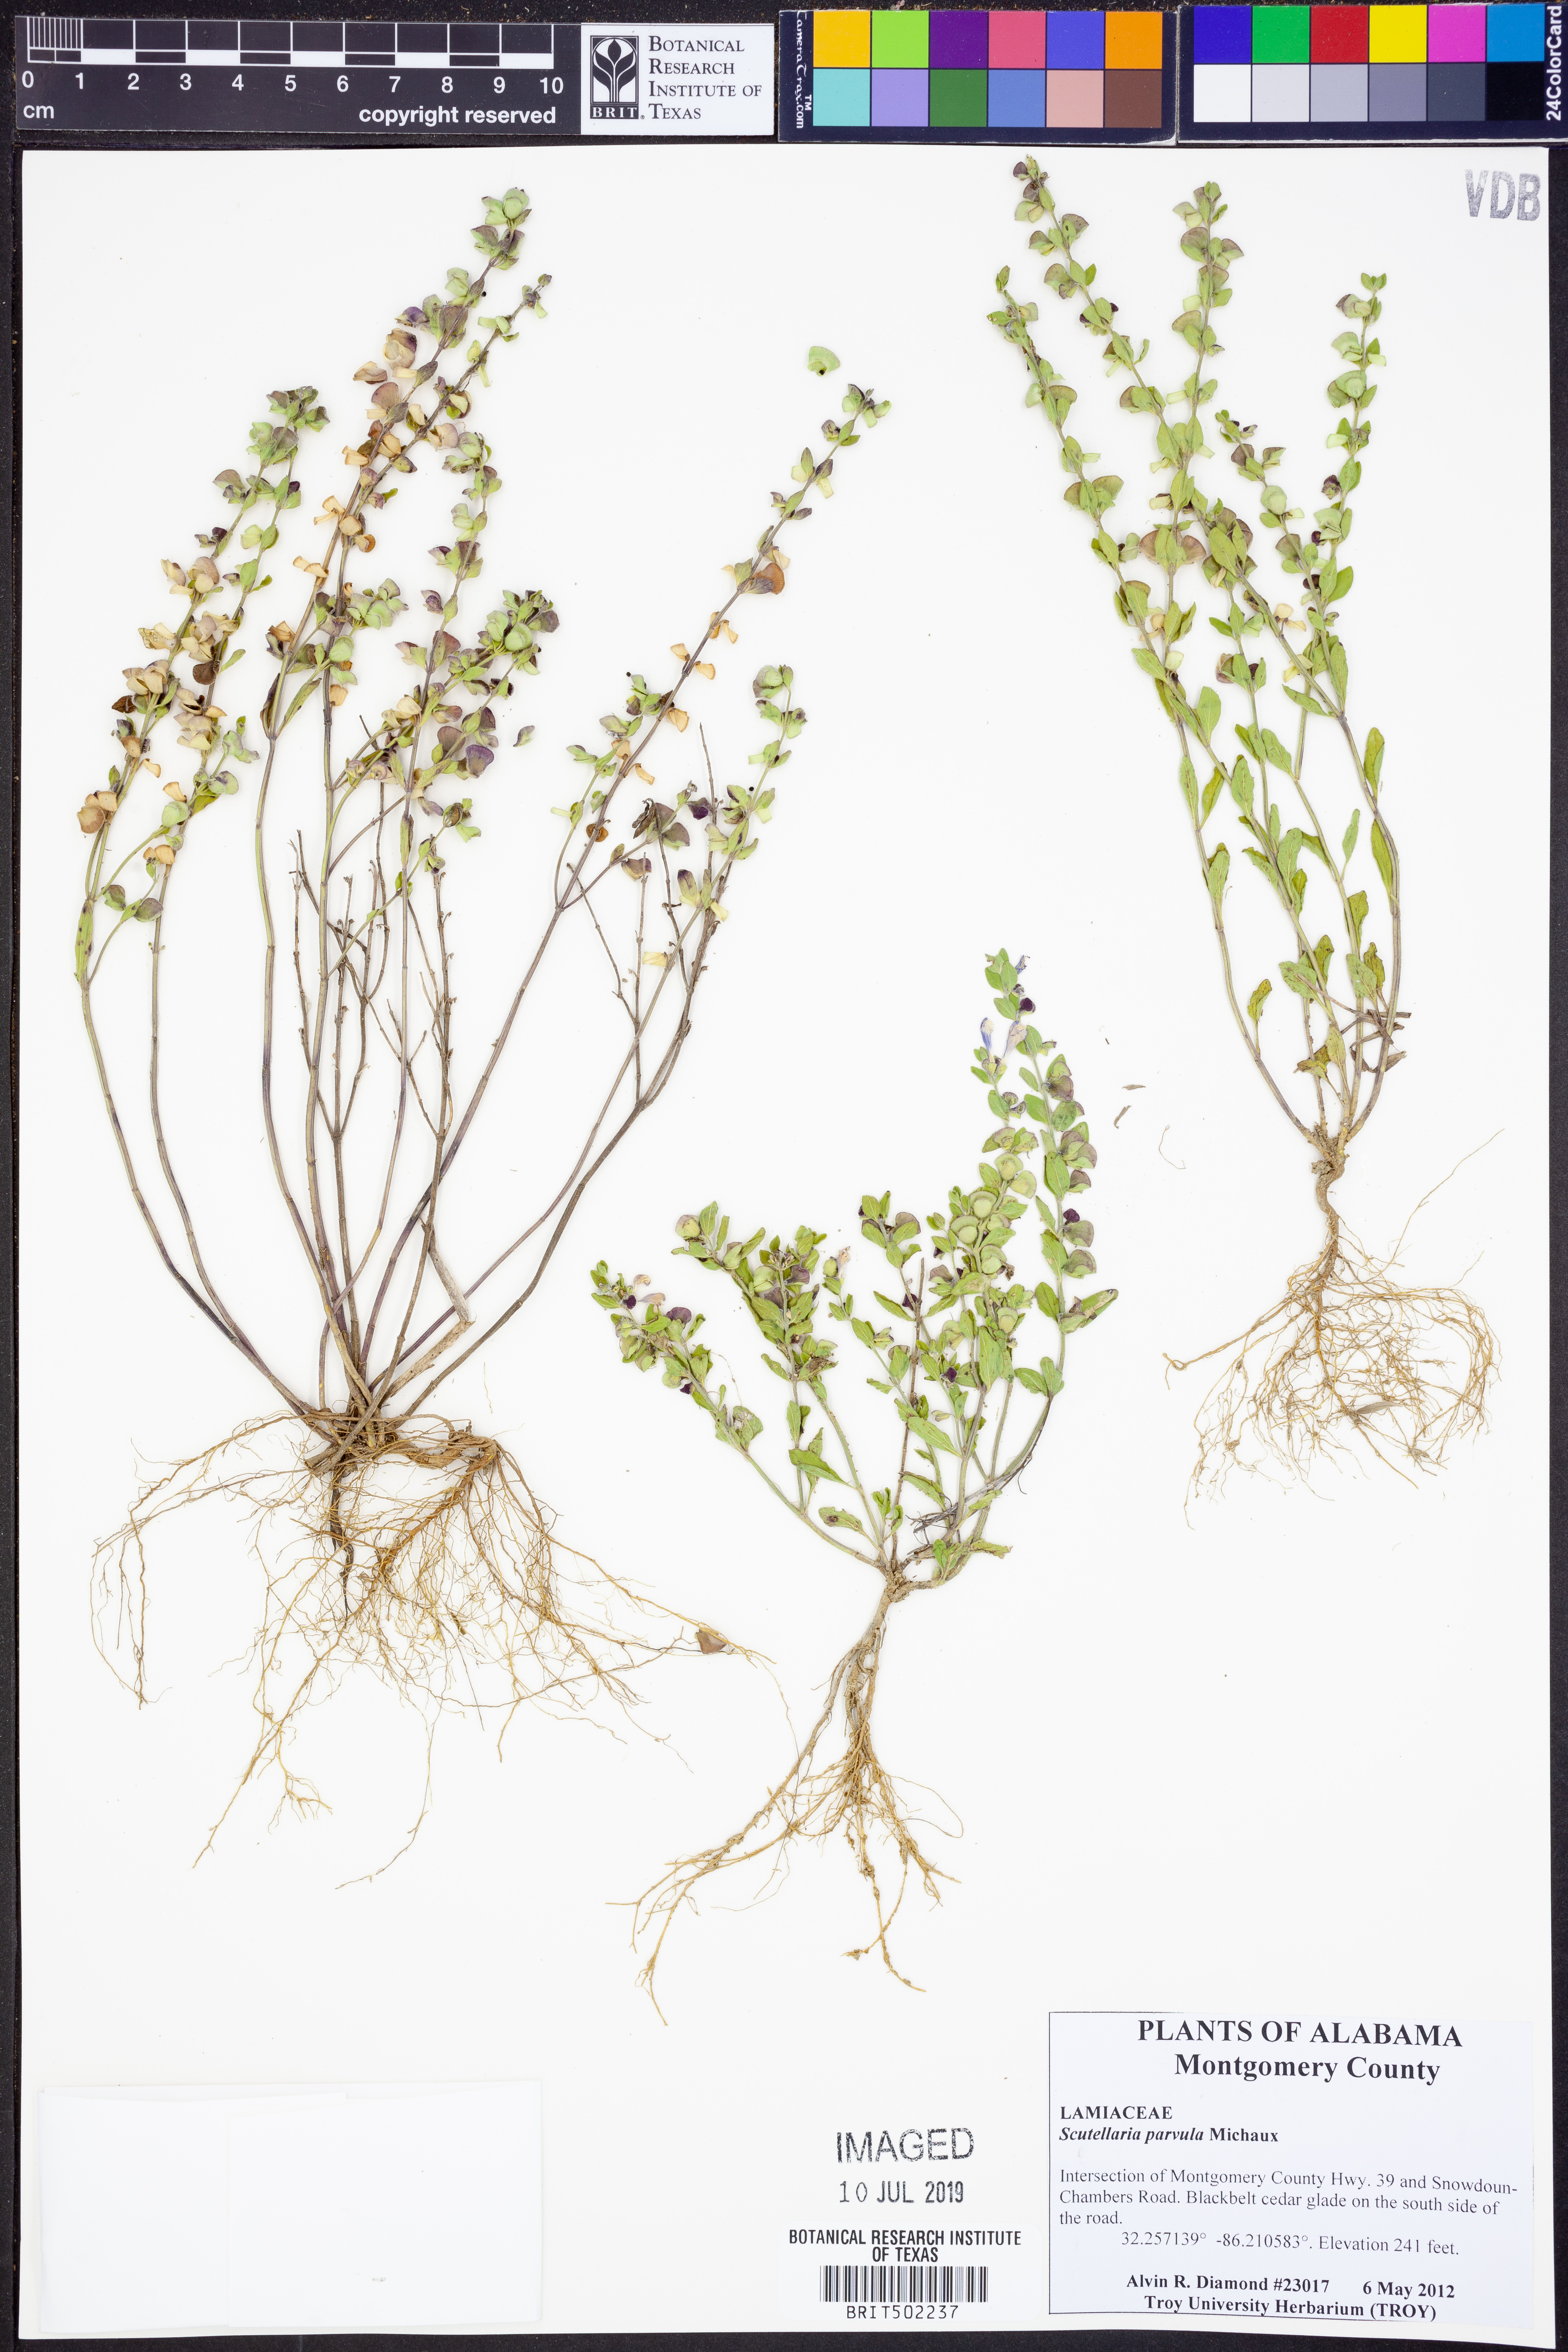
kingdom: Plantae
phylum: Tracheophyta
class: Magnoliopsida
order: Lamiales
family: Lamiaceae
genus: Scutellaria
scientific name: Scutellaria parvula
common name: Little scullcap
